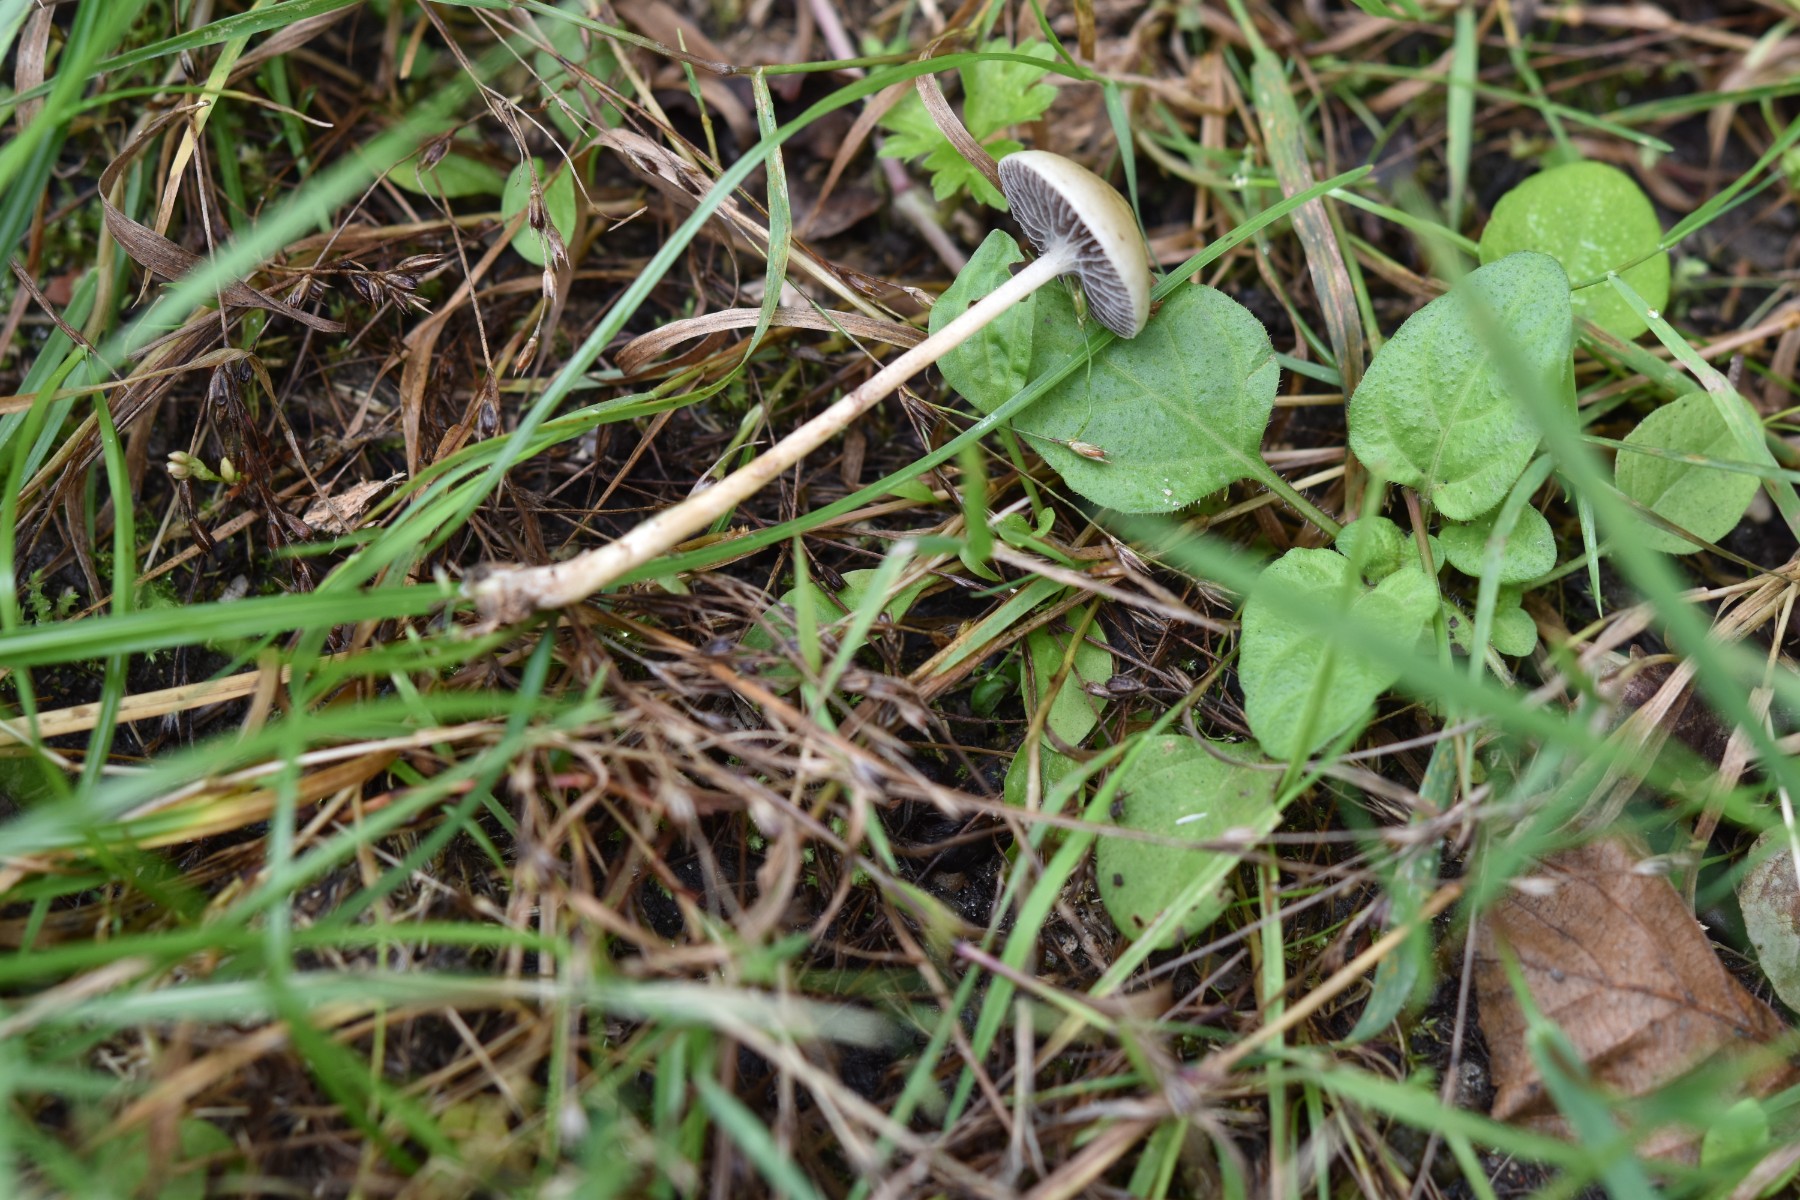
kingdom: Fungi
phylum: Basidiomycota
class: Agaricomycetes
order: Agaricales
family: Strophariaceae
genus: Protostropharia
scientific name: Protostropharia semiglobata
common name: halvkugleformet bredblad
